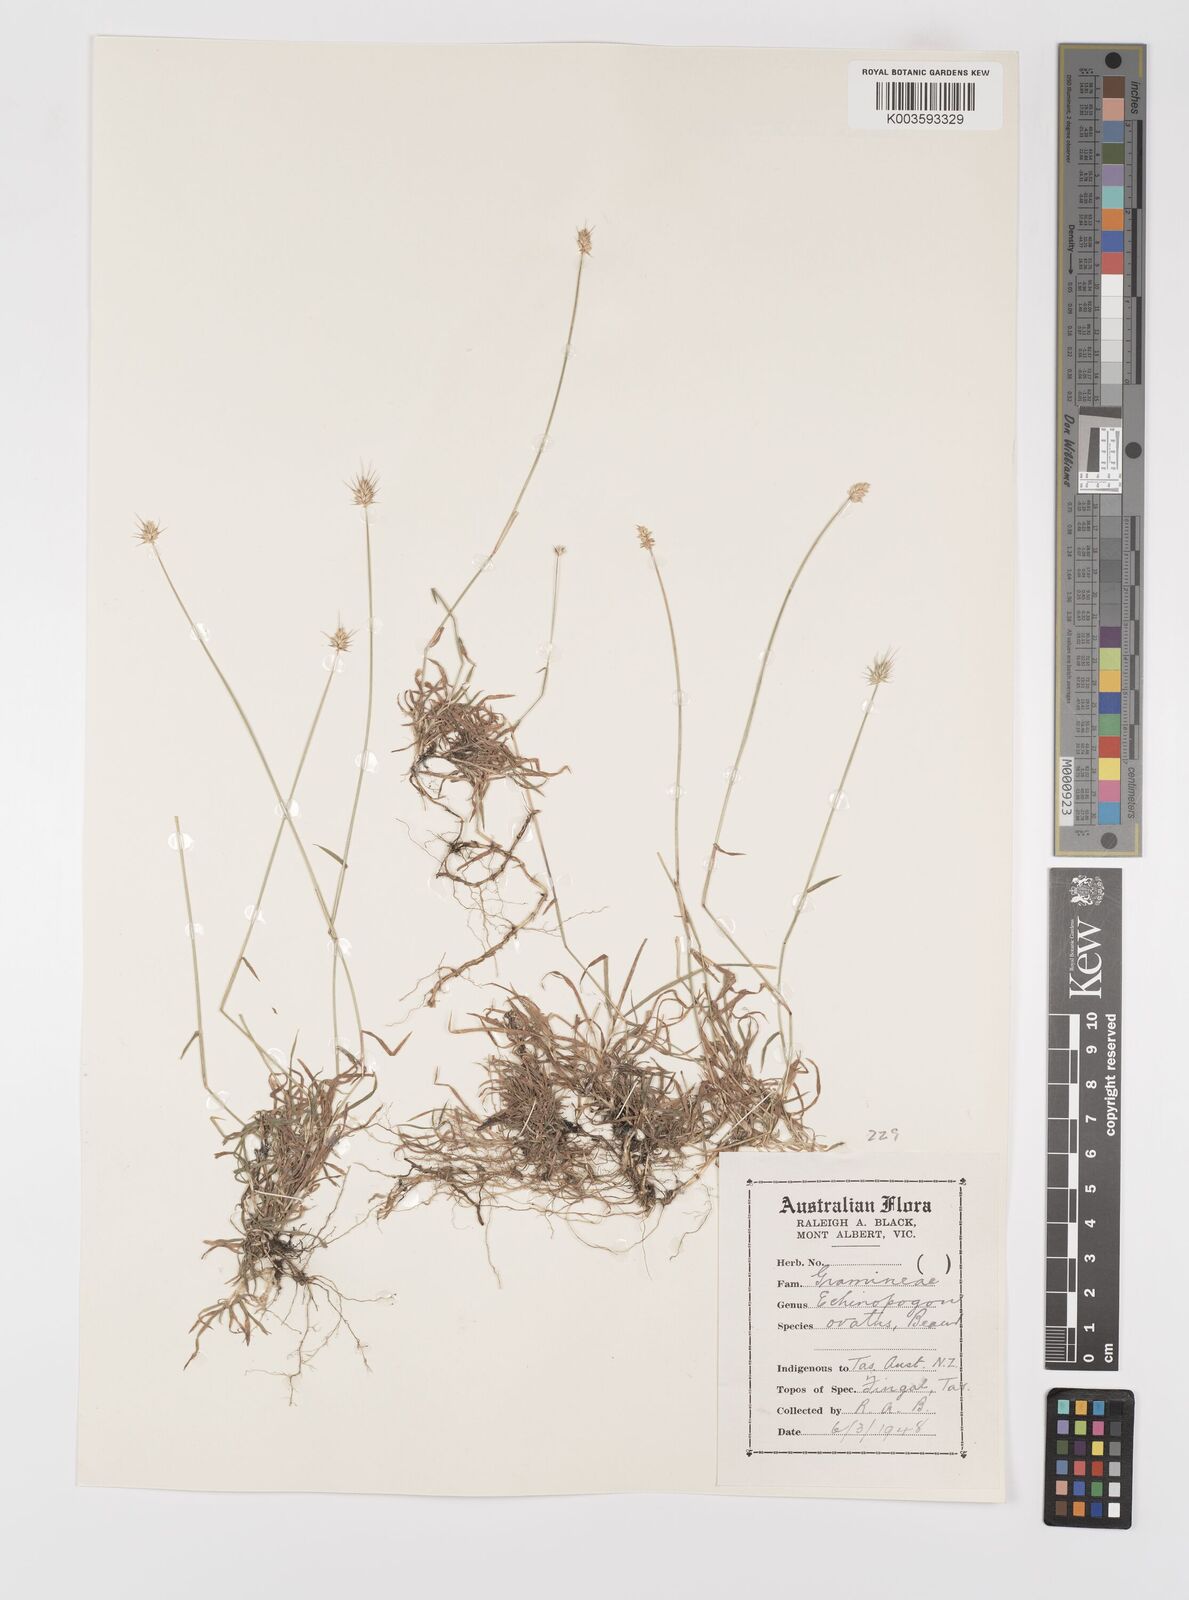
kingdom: Plantae
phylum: Tracheophyta
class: Liliopsida
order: Poales
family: Poaceae
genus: Echinopogon
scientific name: Echinopogon ovatus
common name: Hedgehog-grass
